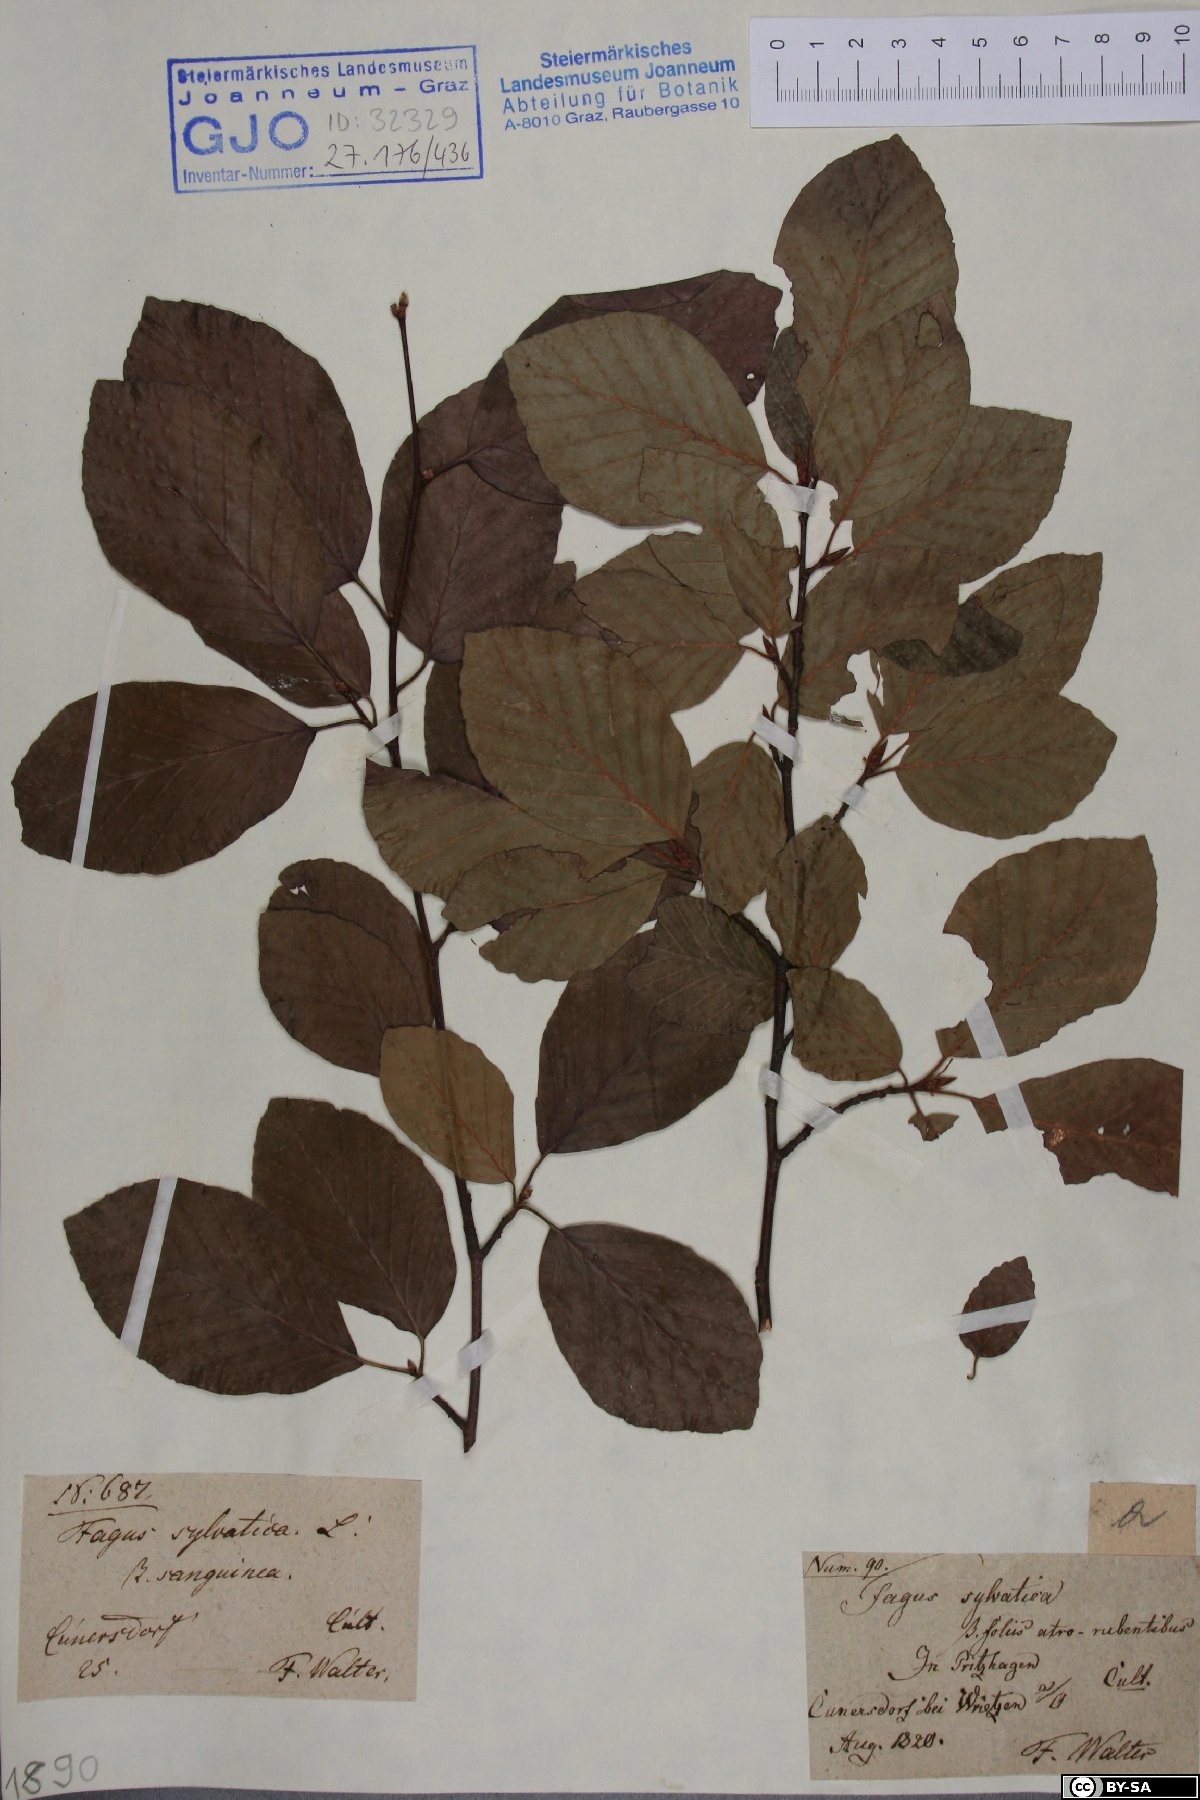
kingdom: Plantae
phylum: Tracheophyta
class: Magnoliopsida
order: Fagales
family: Fagaceae
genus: Fagus
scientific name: Fagus sylvatica
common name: Beech
